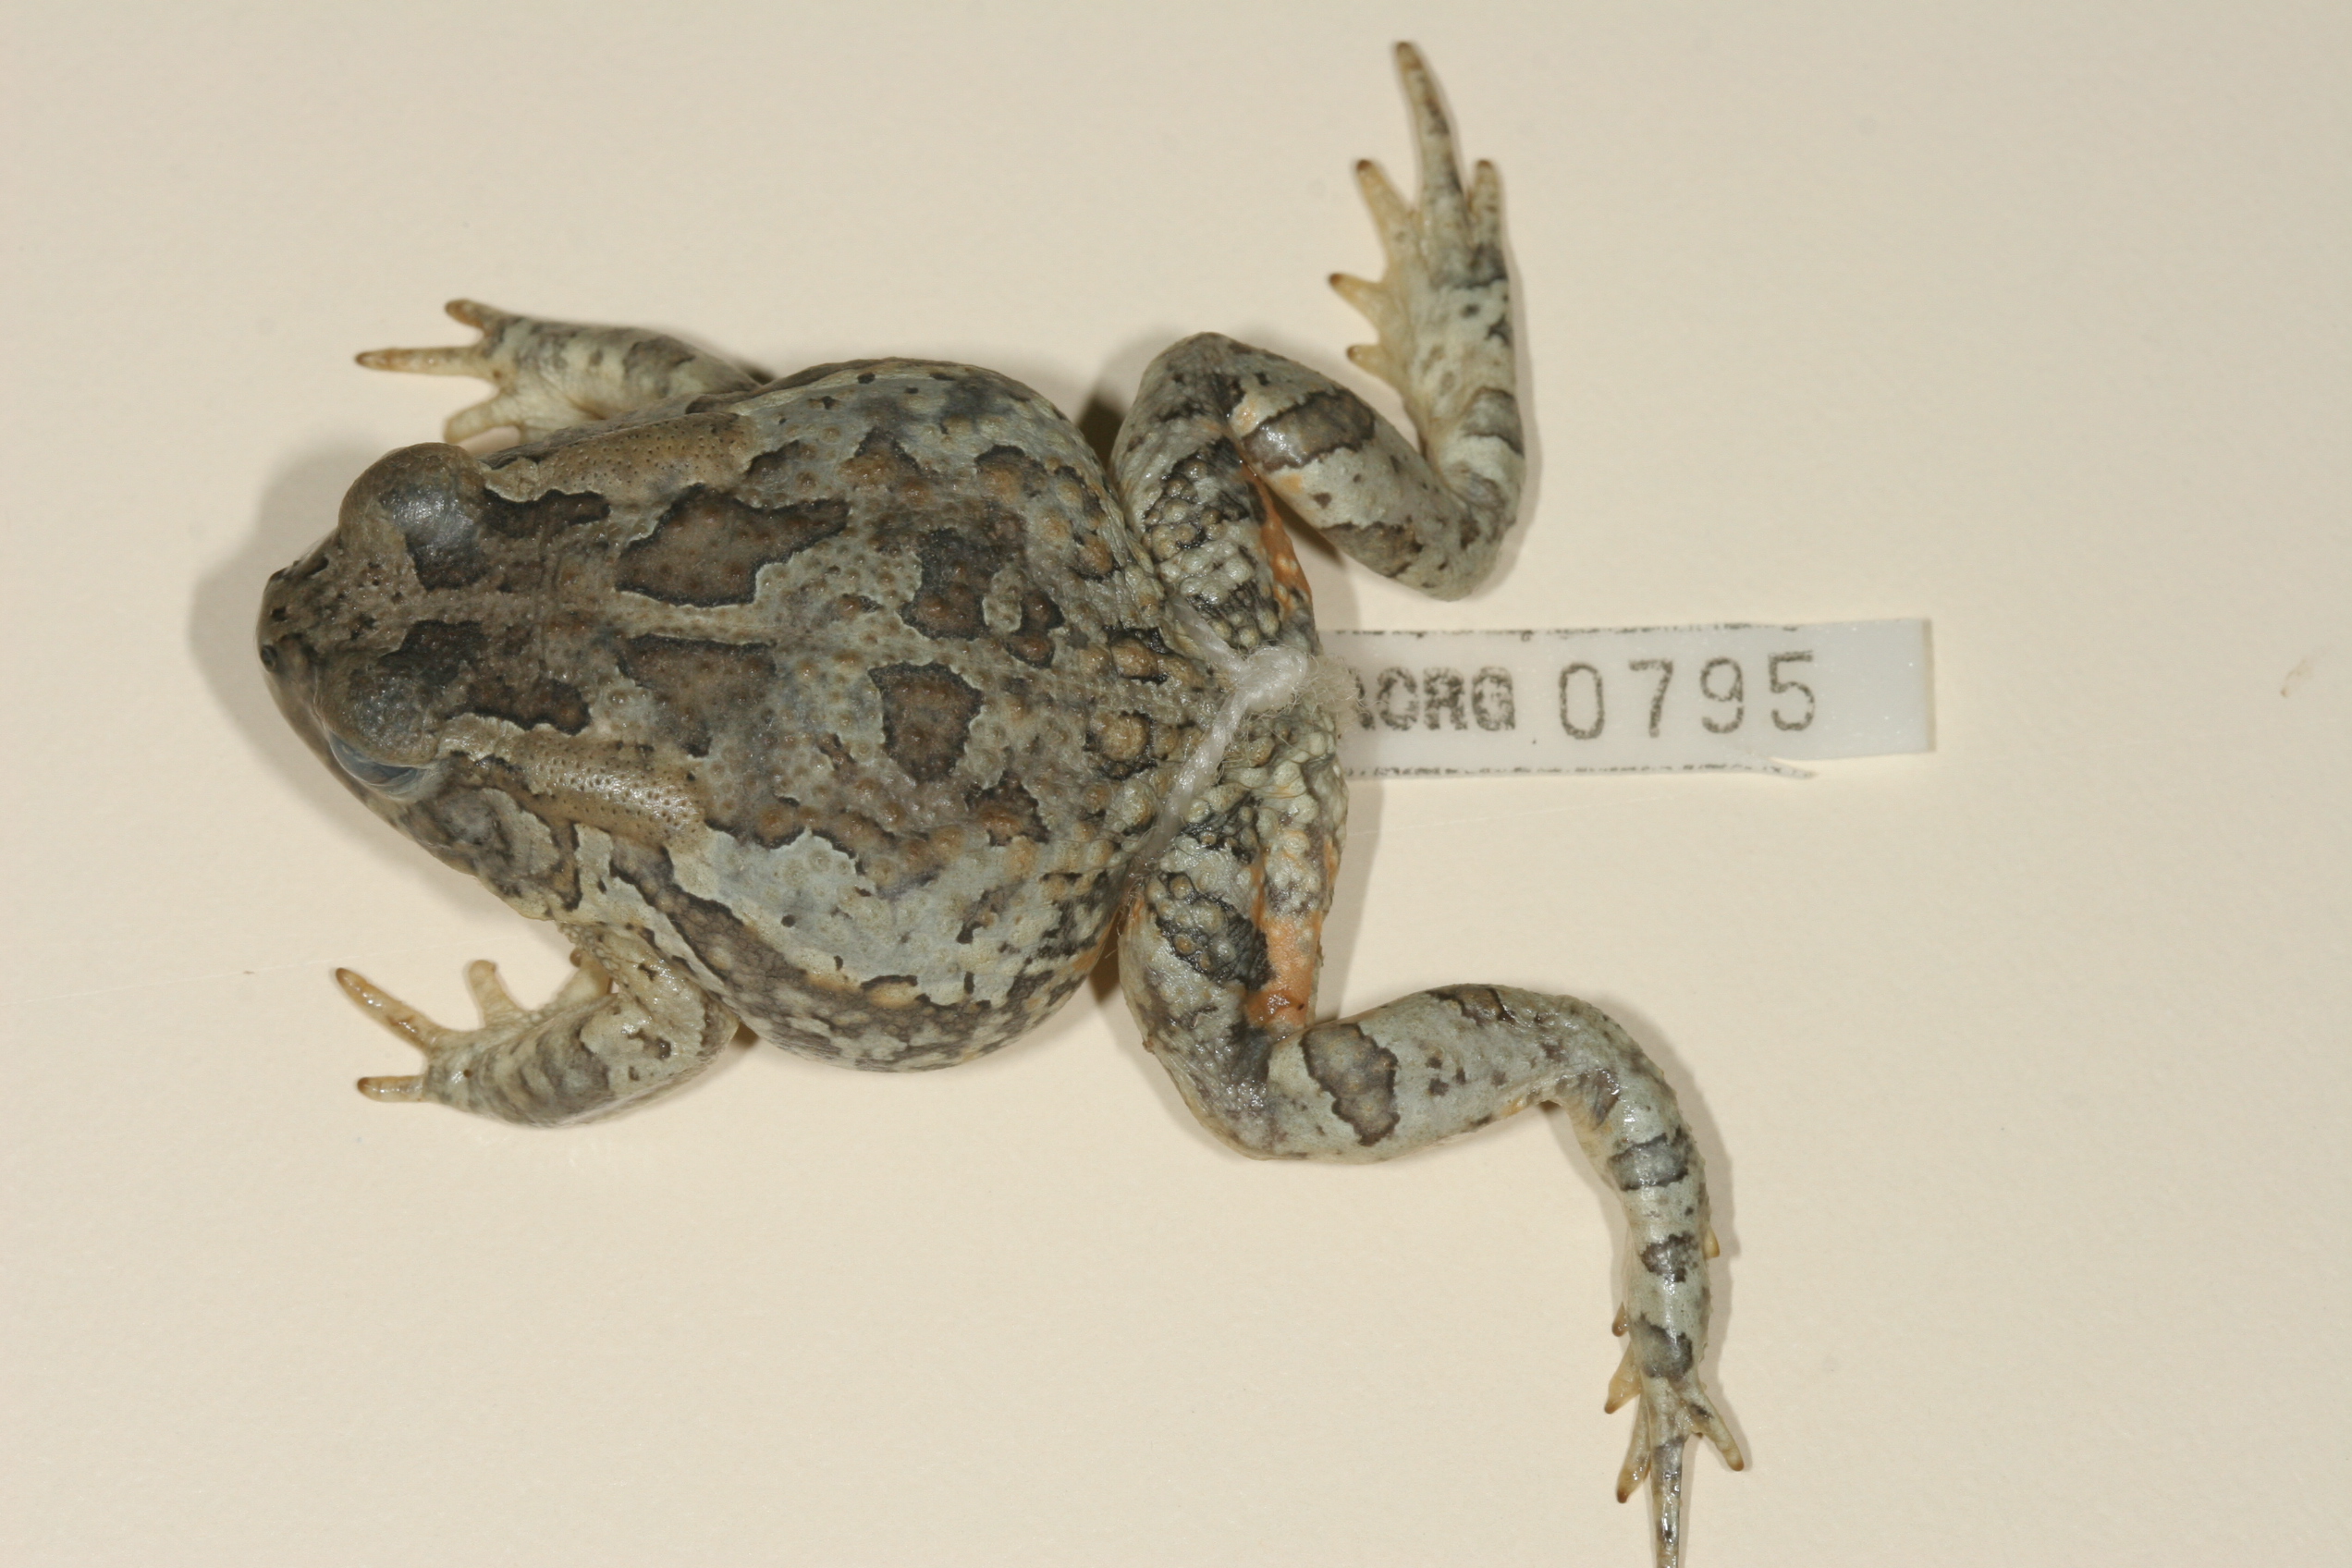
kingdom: Animalia
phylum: Chordata
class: Amphibia
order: Anura
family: Bufonidae
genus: Sclerophrys
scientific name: Sclerophrys poweri
